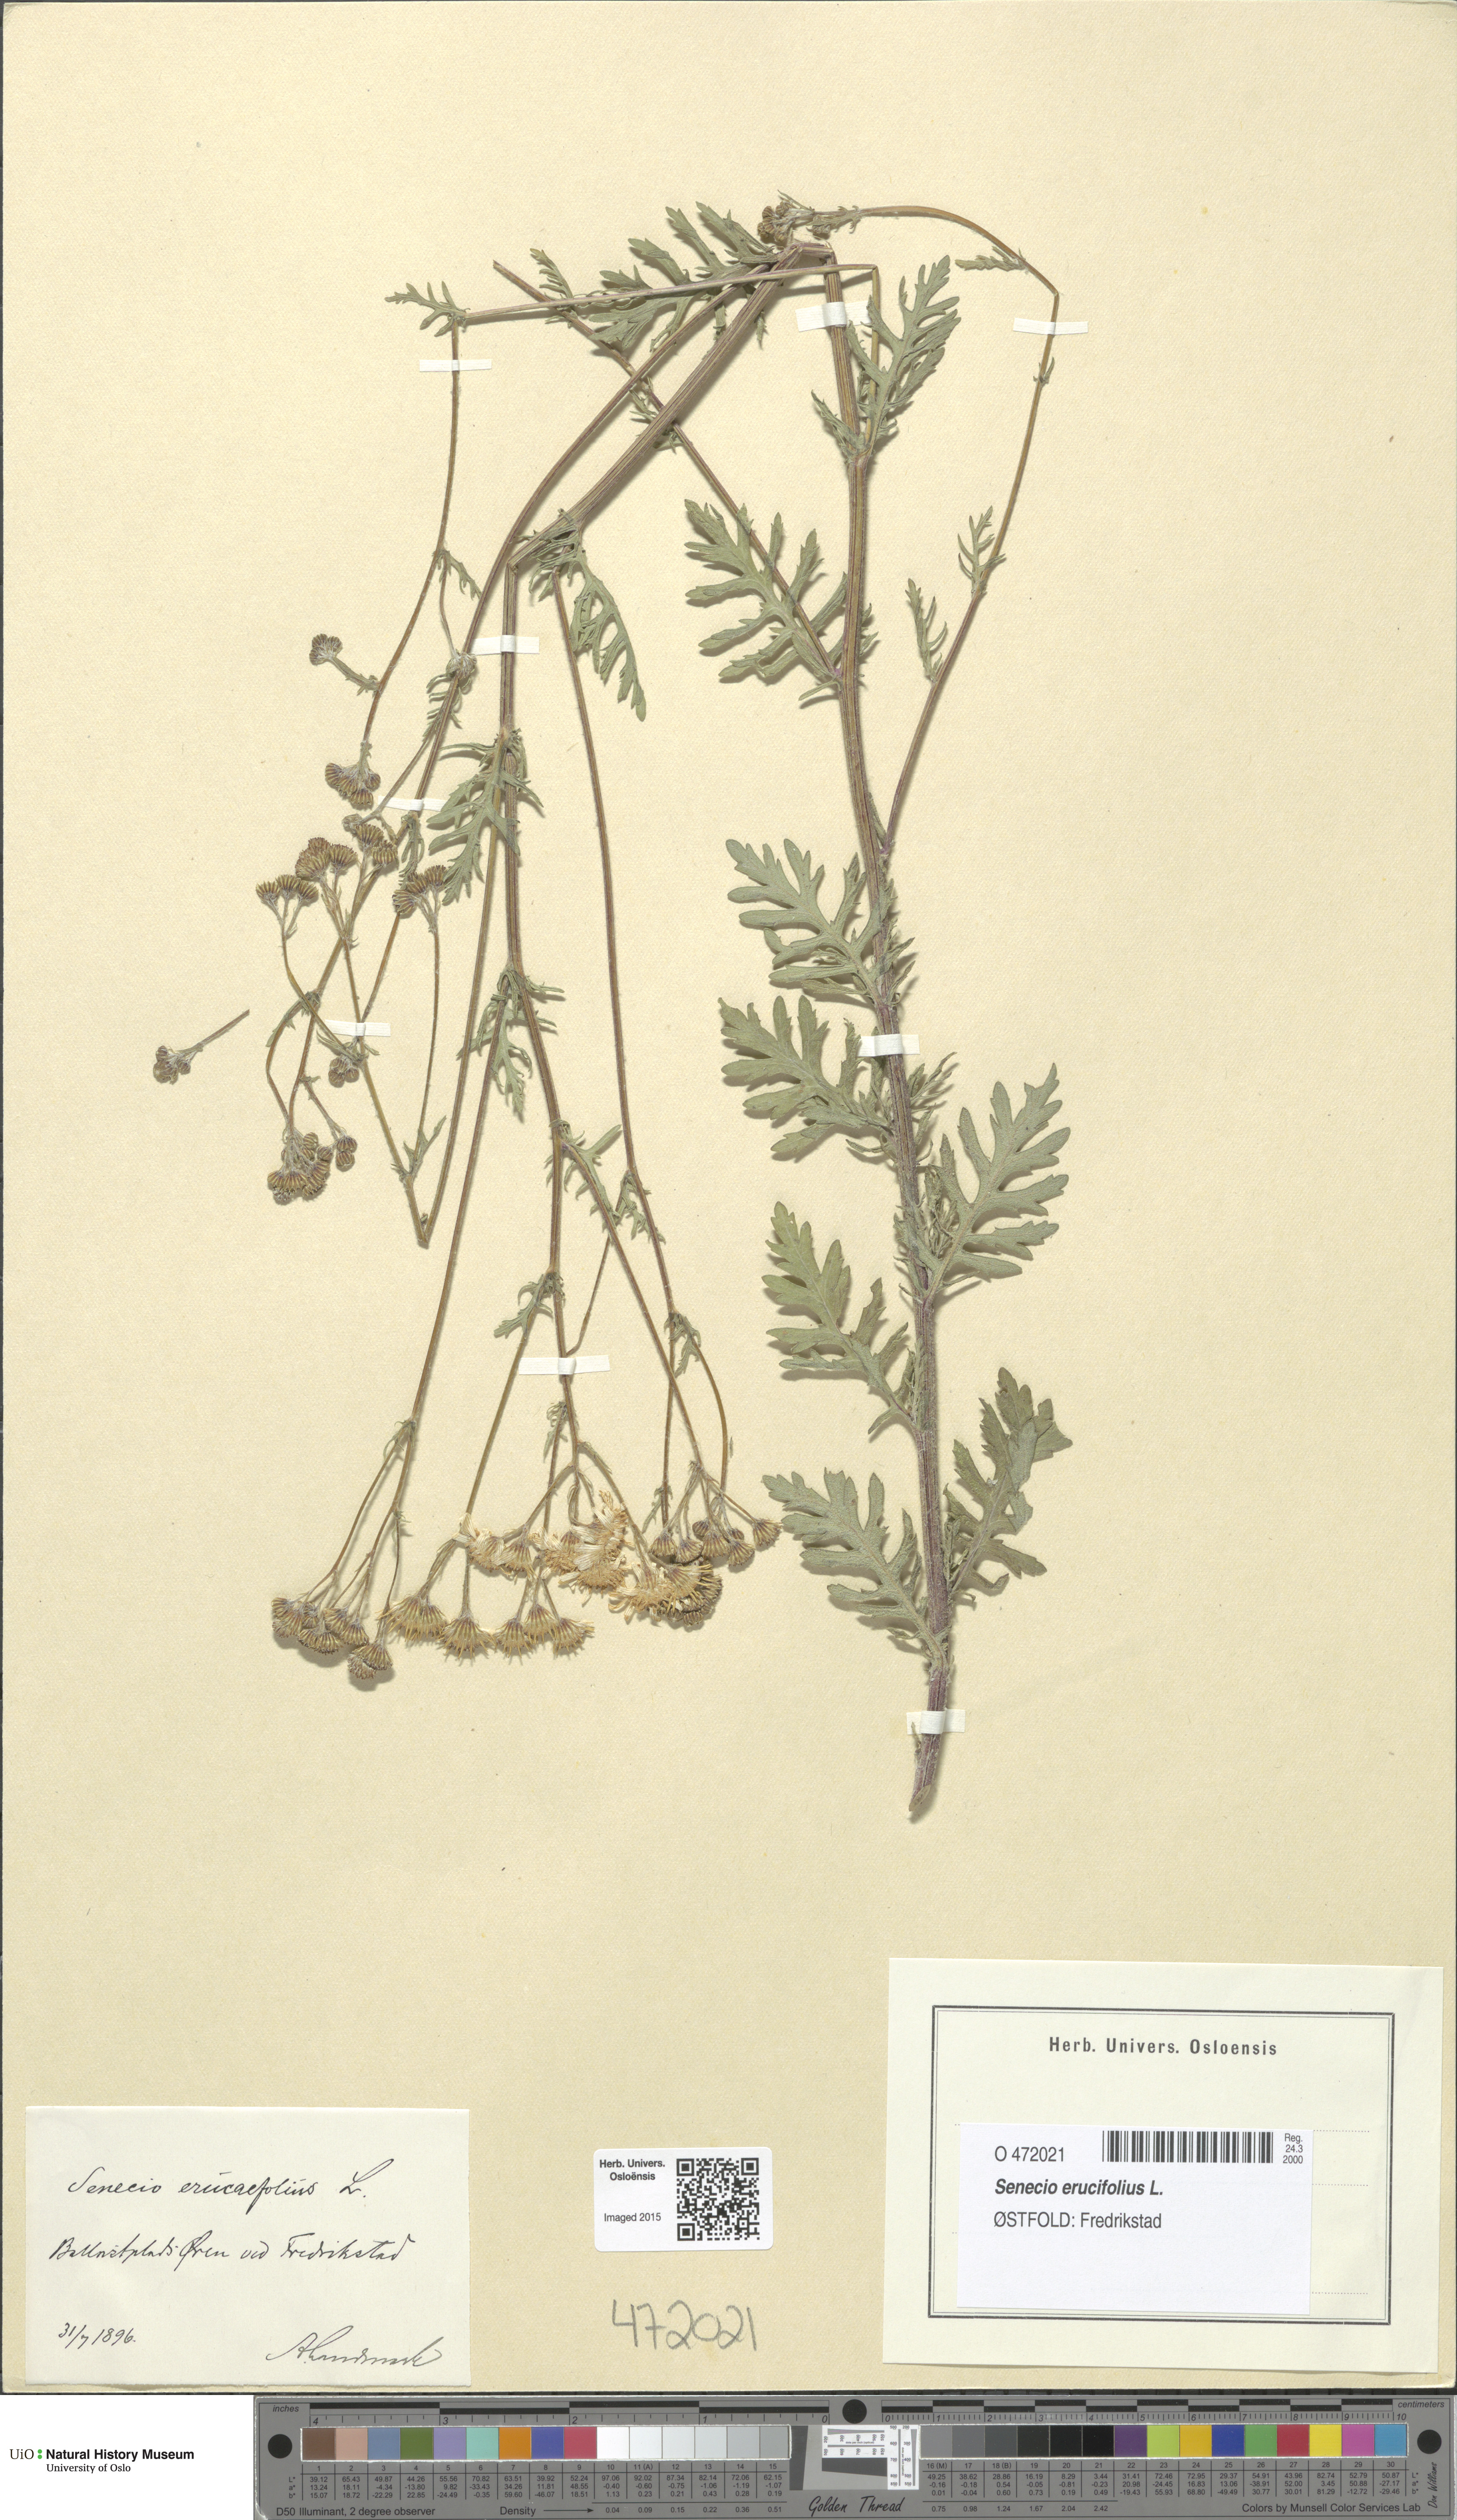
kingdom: Plantae
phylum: Tracheophyta
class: Magnoliopsida
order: Asterales
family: Asteraceae
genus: Jacobaea
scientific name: Jacobaea erucifolia
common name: Hoary ragwort
